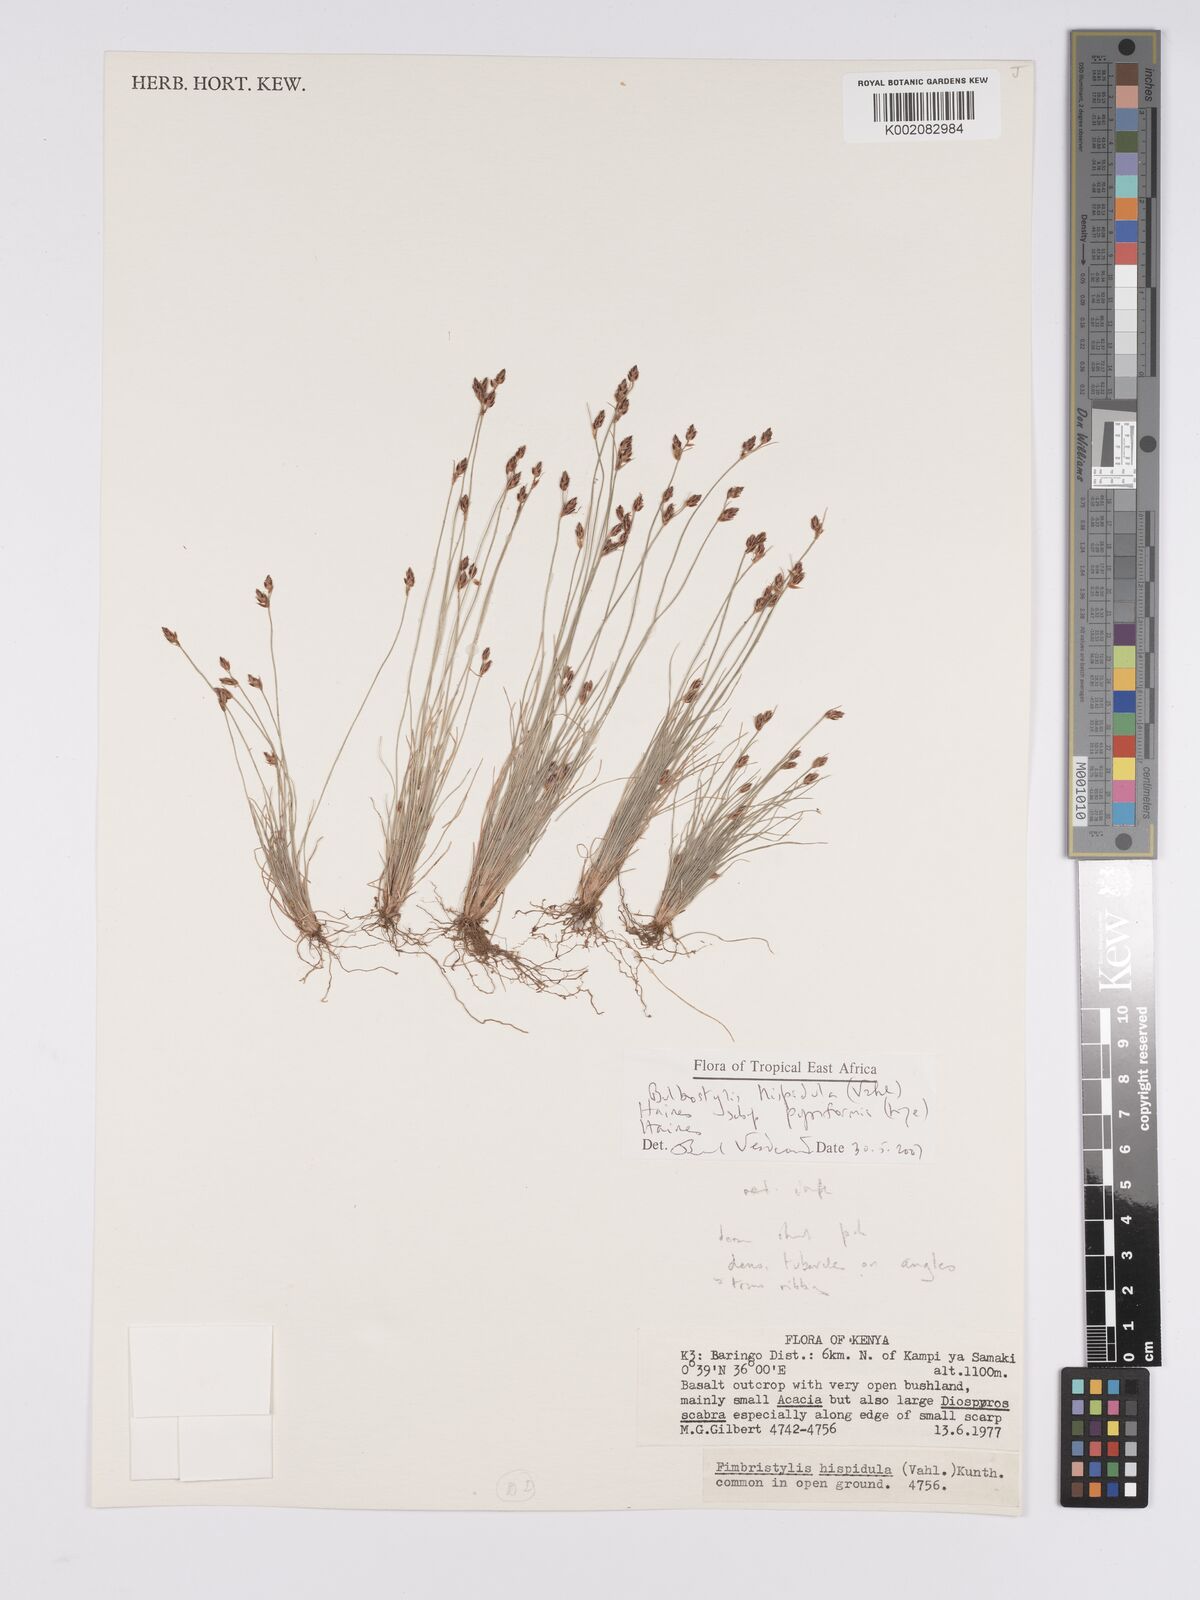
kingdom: Plantae
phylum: Tracheophyta
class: Liliopsida
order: Poales
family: Cyperaceae
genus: Bulbostylis
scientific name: Bulbostylis hispidula
